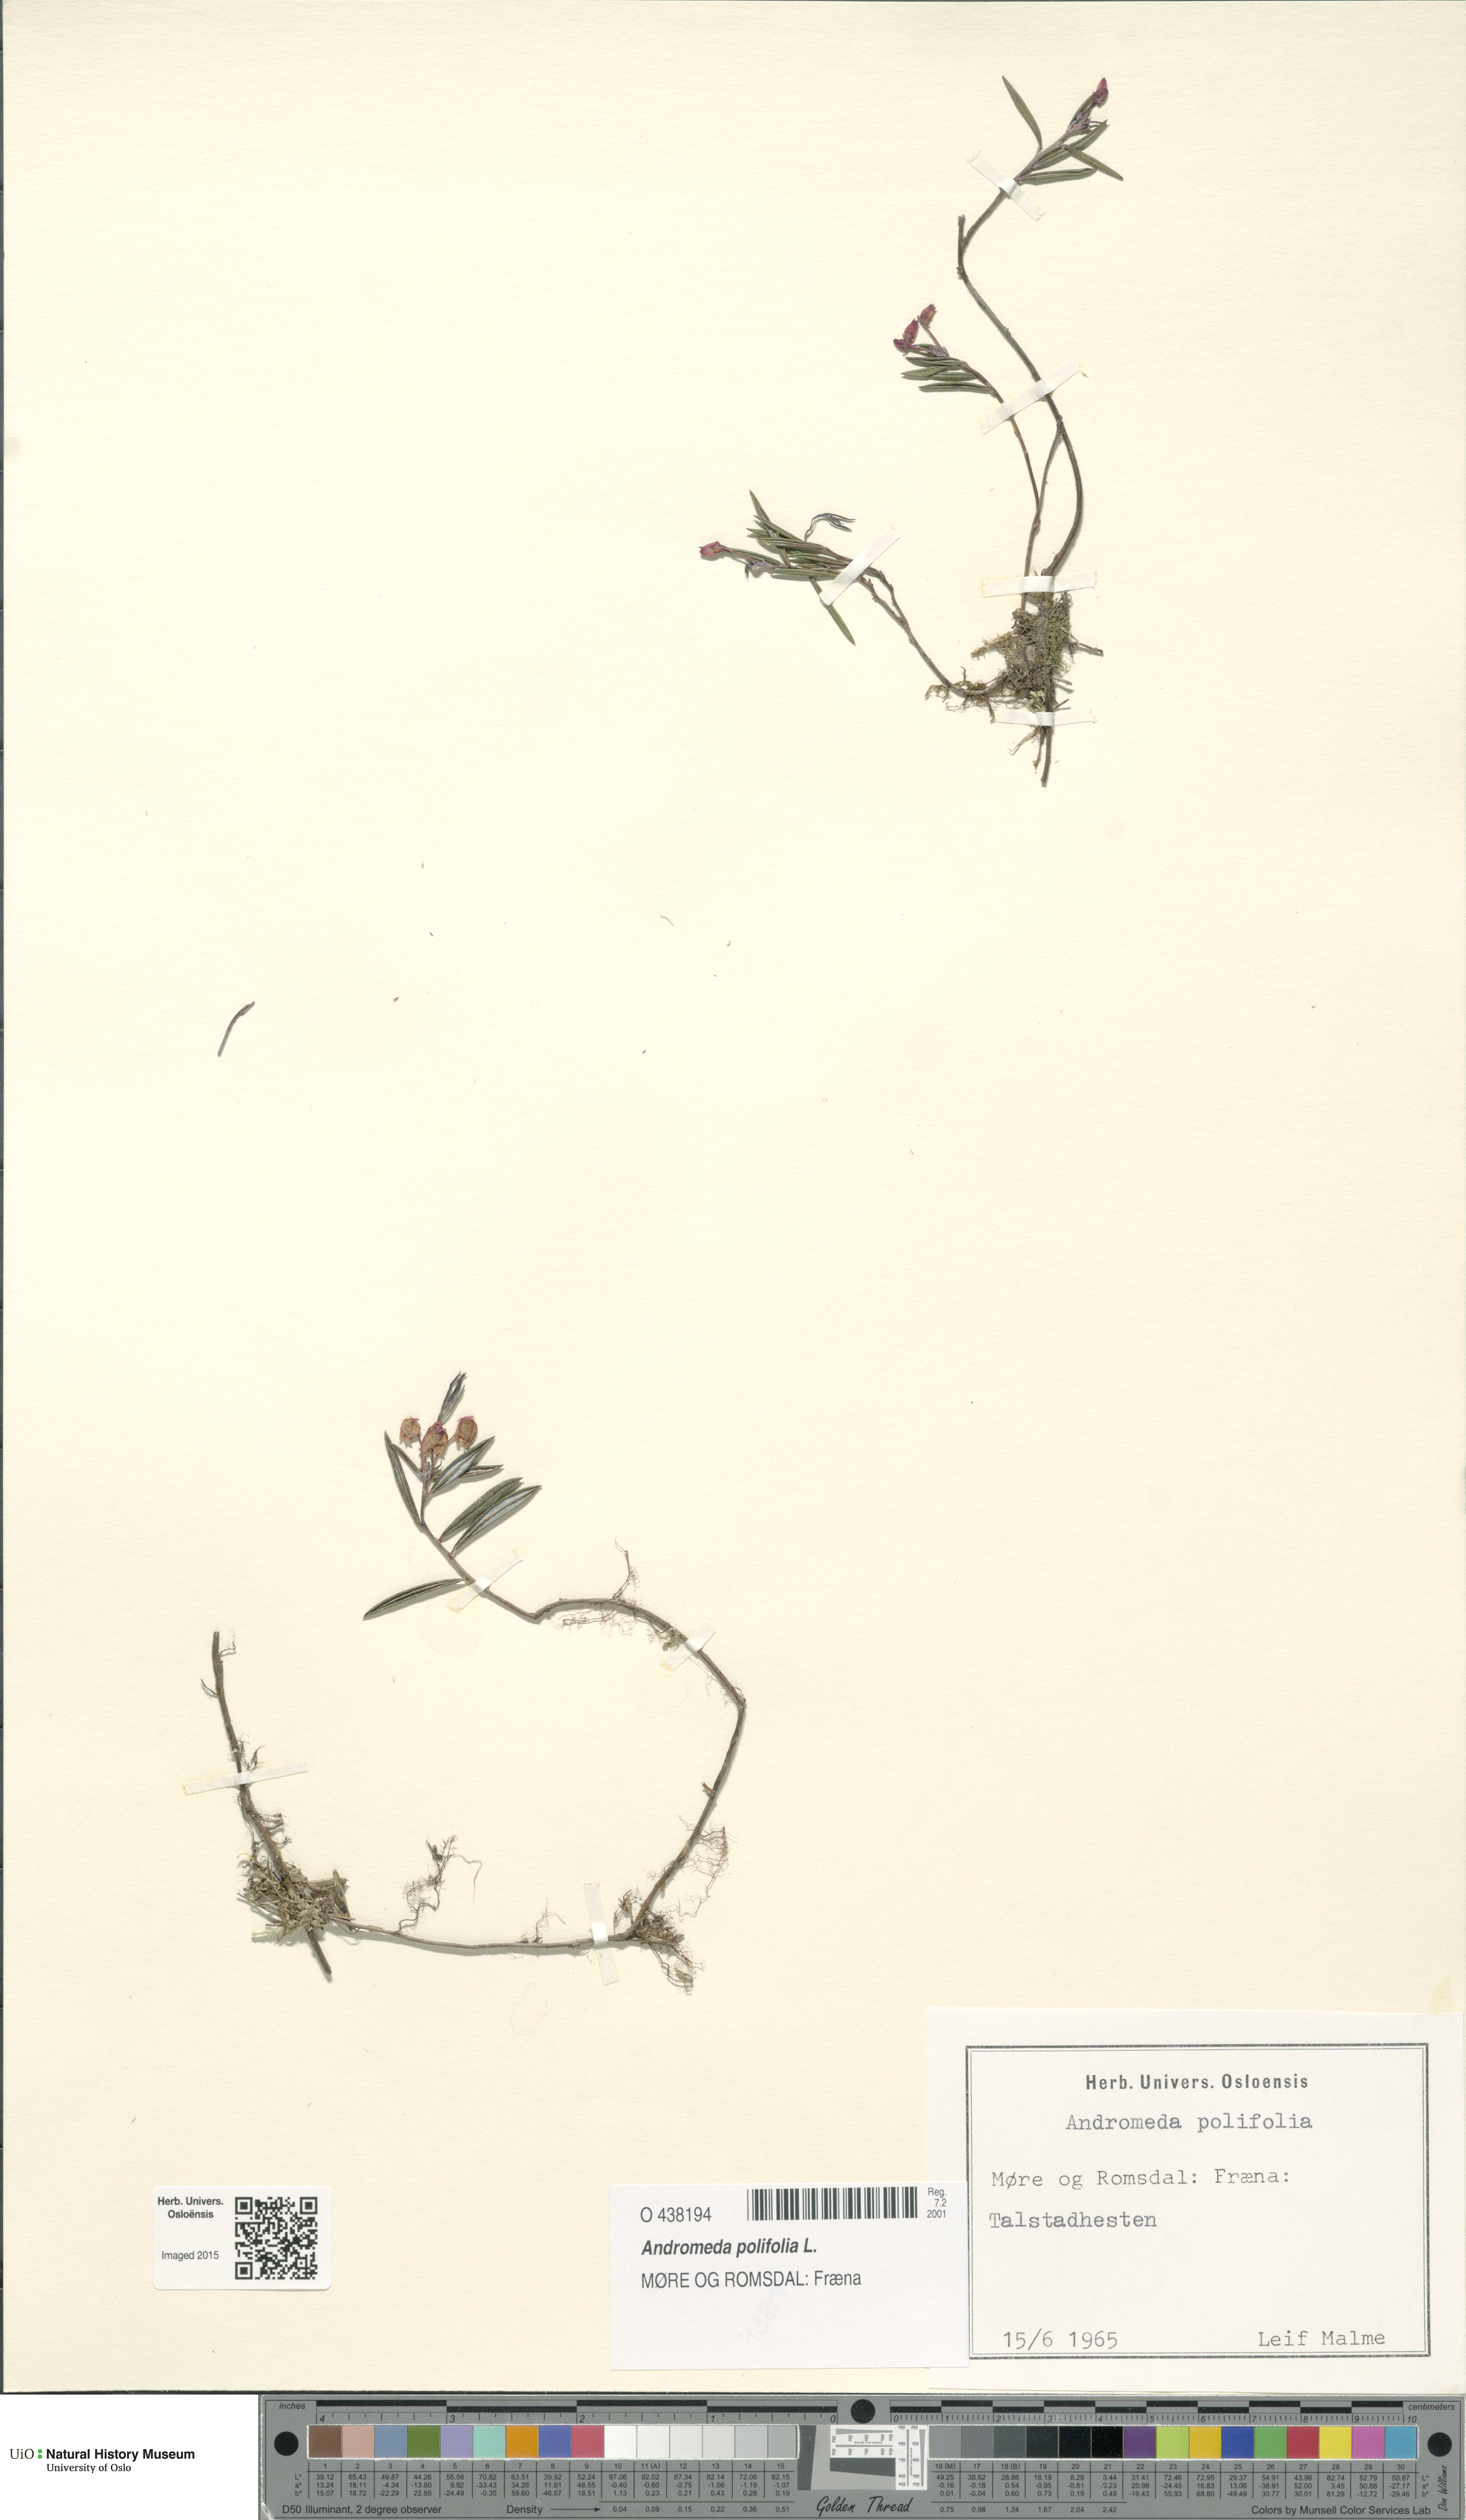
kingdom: Plantae
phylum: Tracheophyta
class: Magnoliopsida
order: Ericales
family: Ericaceae
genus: Andromeda
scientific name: Andromeda polifolia
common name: Bog-rosemary
